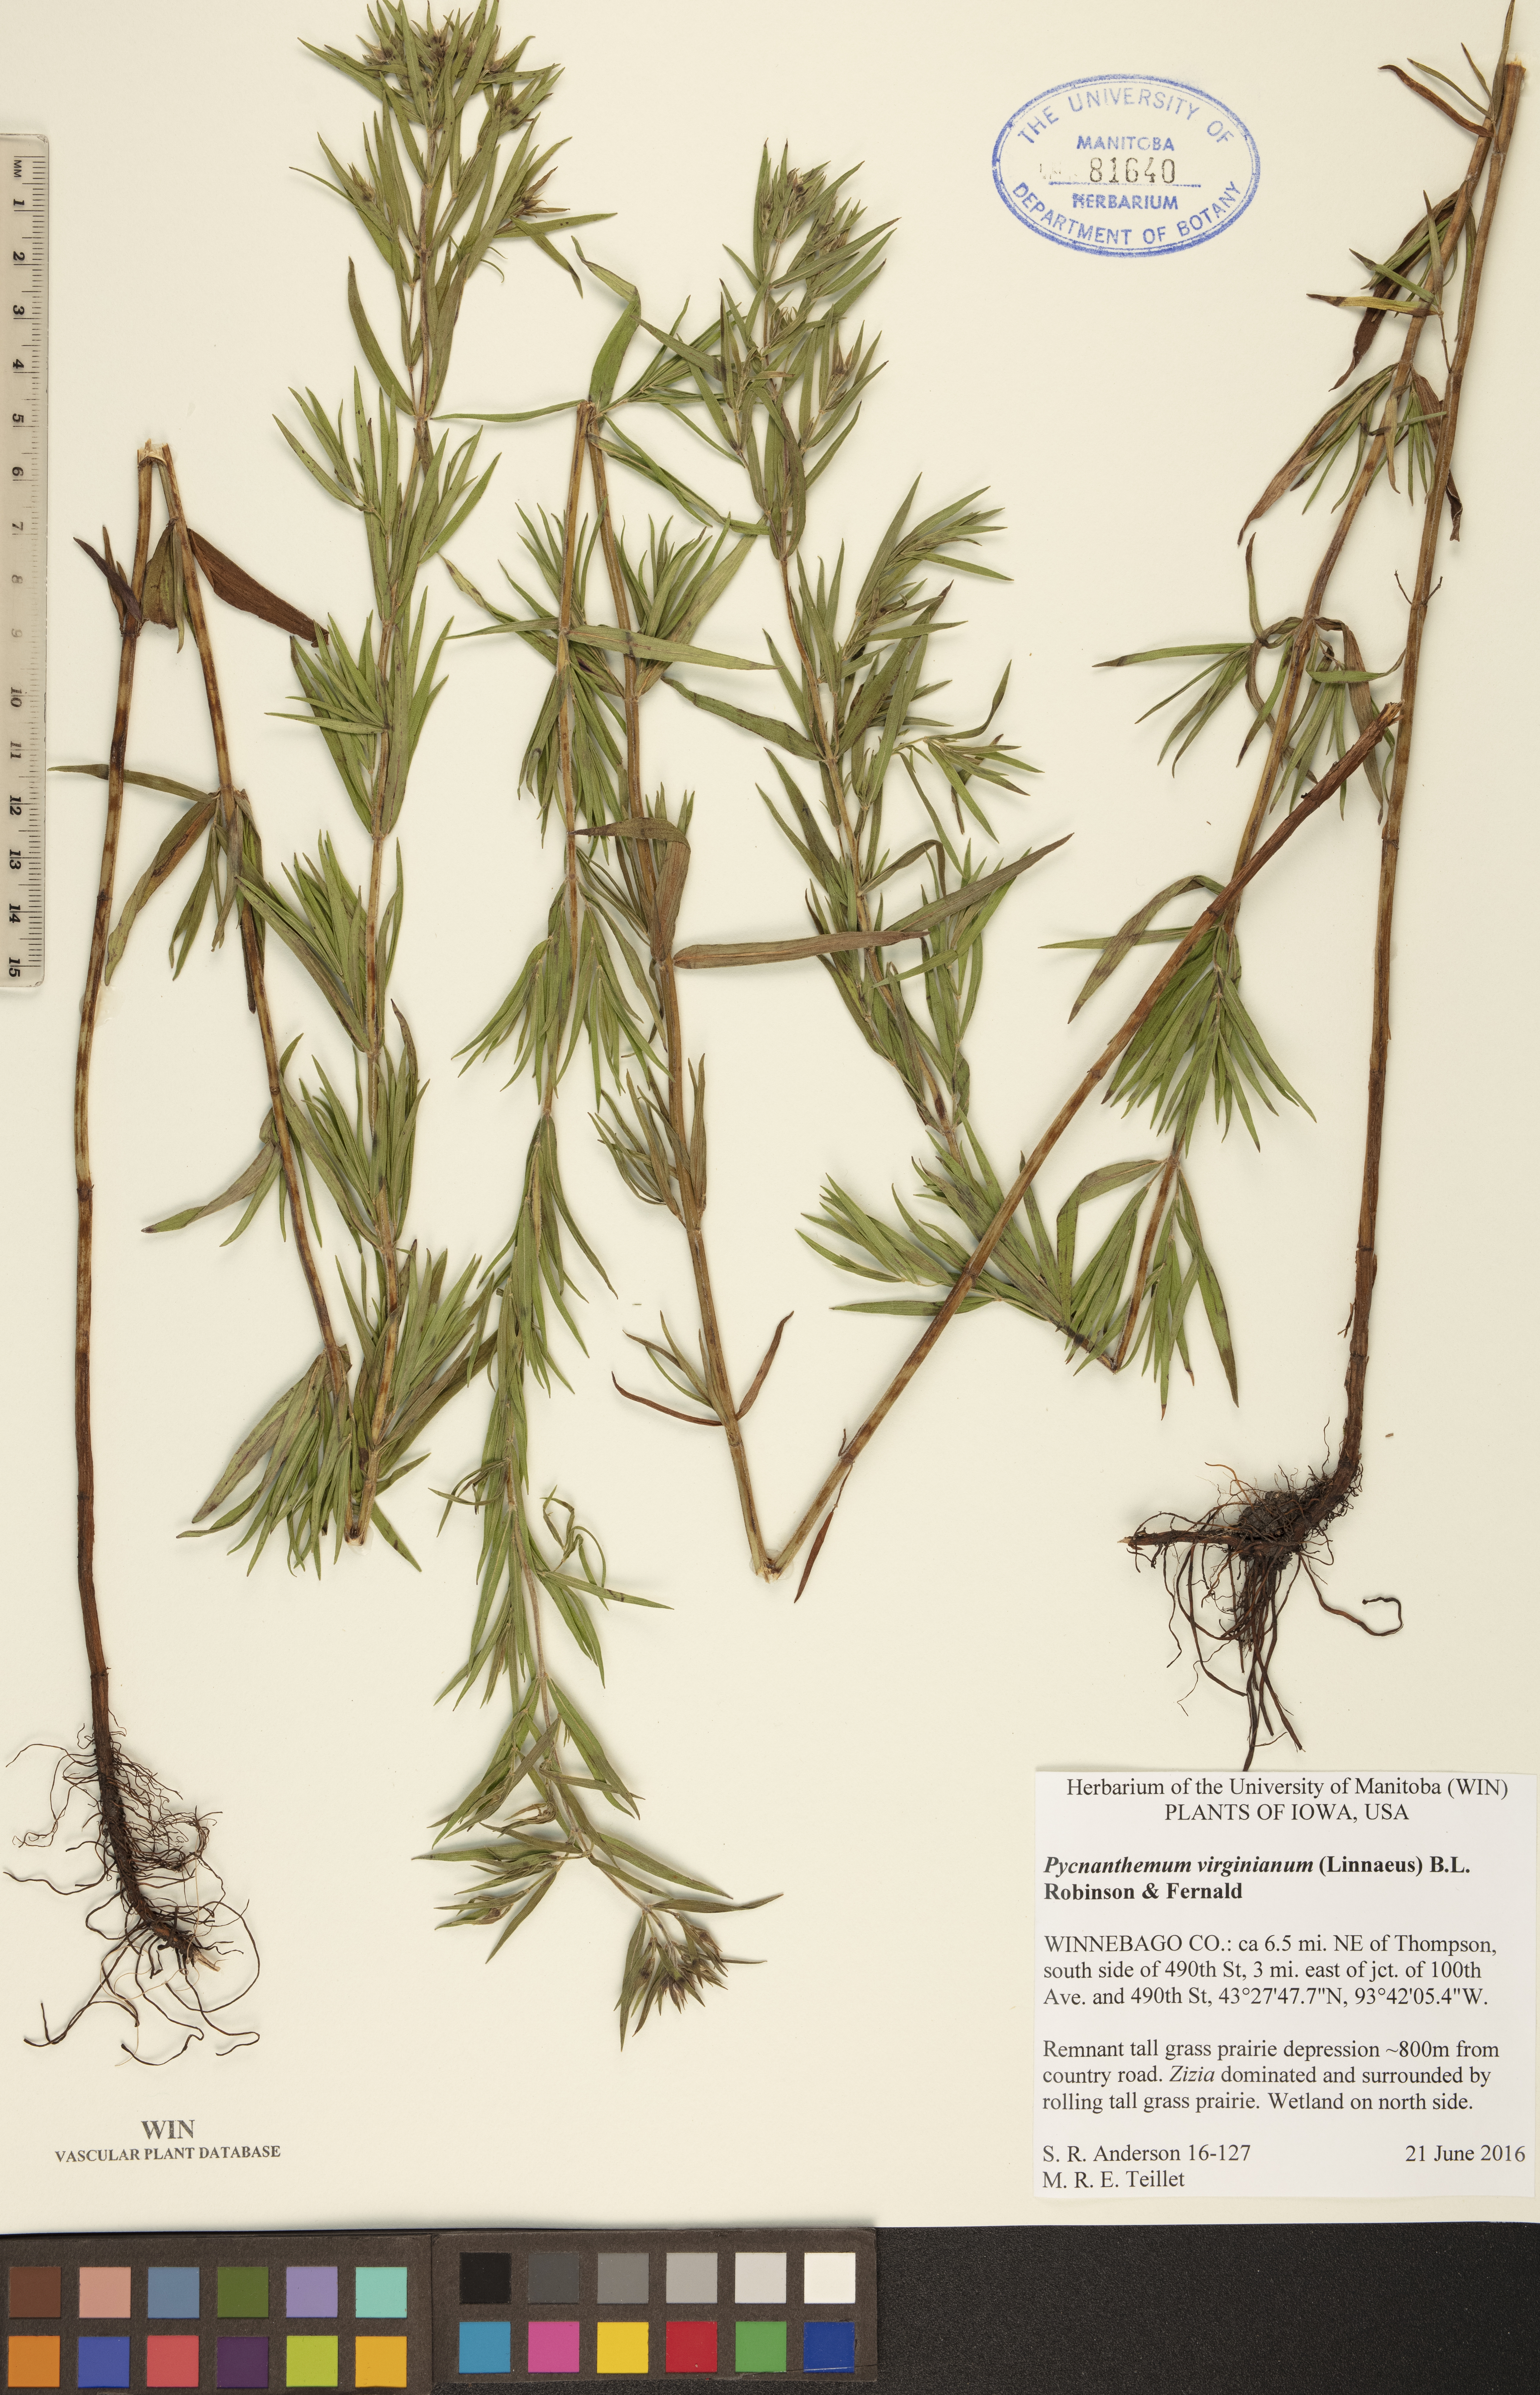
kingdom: Plantae
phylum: Tracheophyta
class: Magnoliopsida
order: Lamiales
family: Lamiaceae
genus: Pycnanthemum
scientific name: Pycnanthemum virginianum
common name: Virginia mountain-mint
